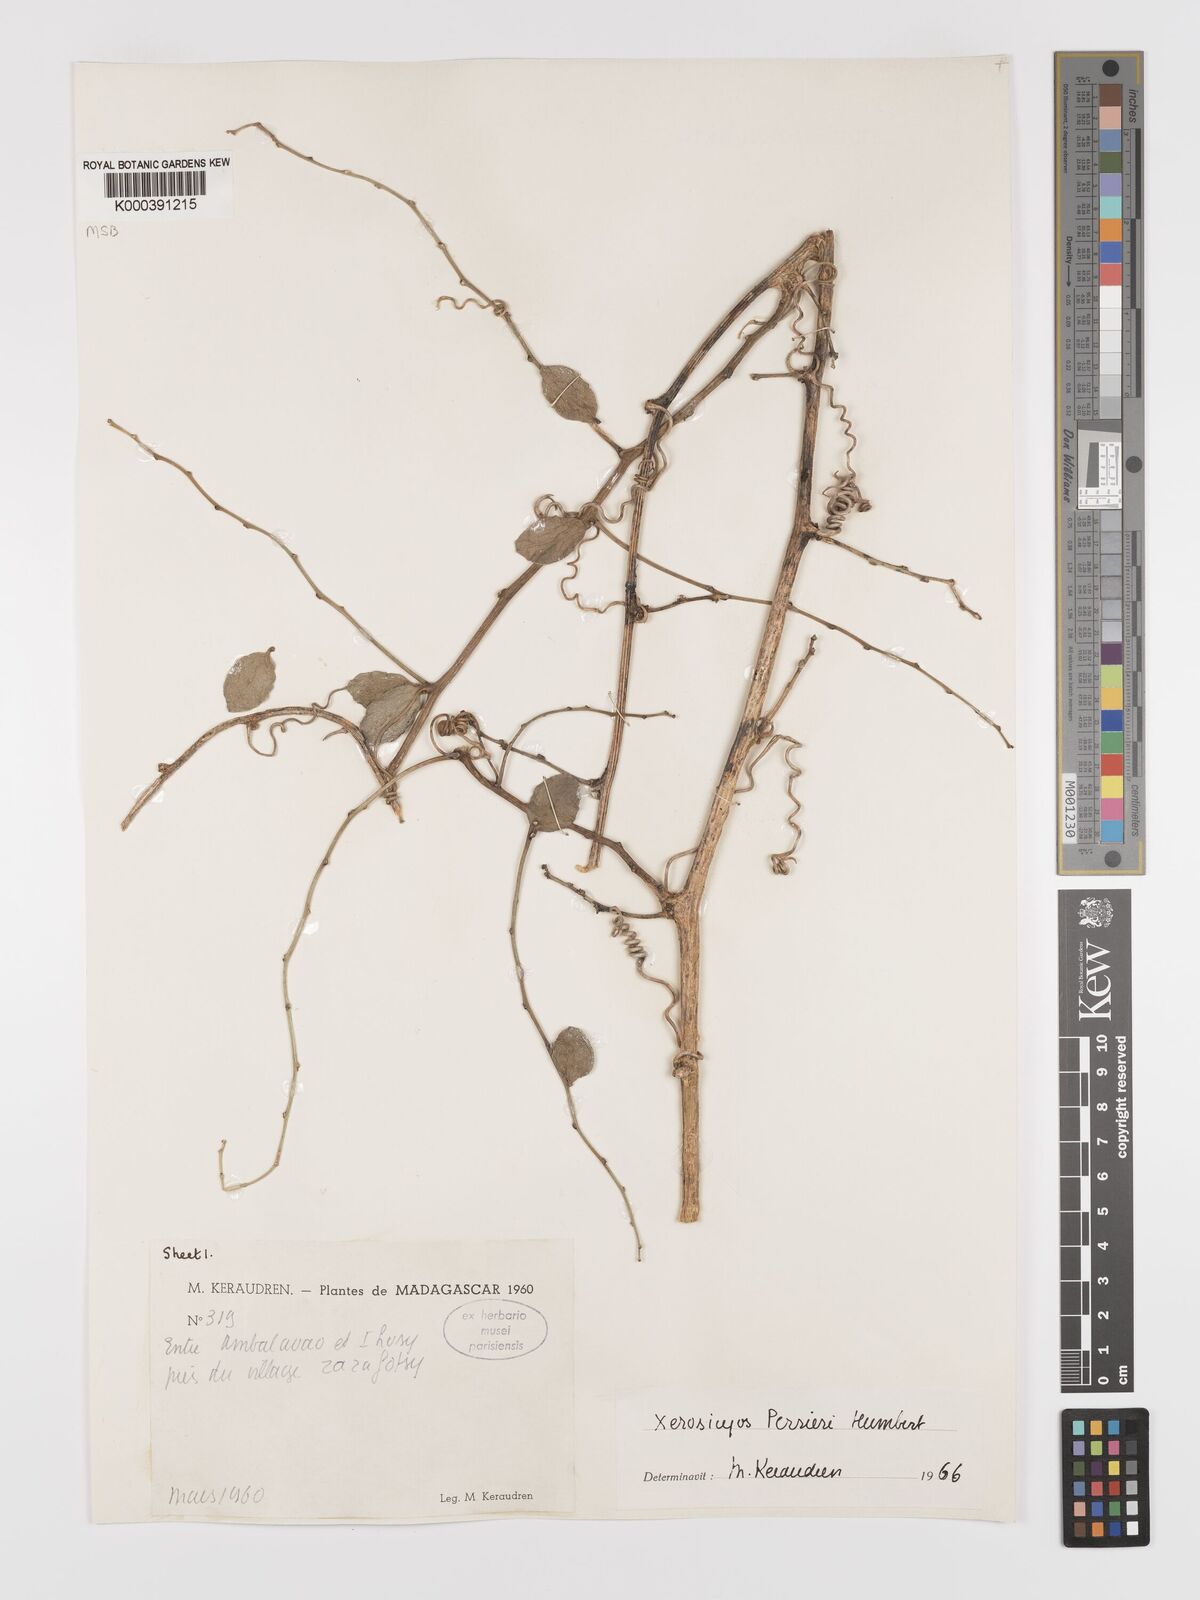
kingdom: Plantae
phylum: Tracheophyta
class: Magnoliopsida
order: Cucurbitales
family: Cucurbitaceae
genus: Xerosicyos
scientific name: Xerosicyos perrieri
